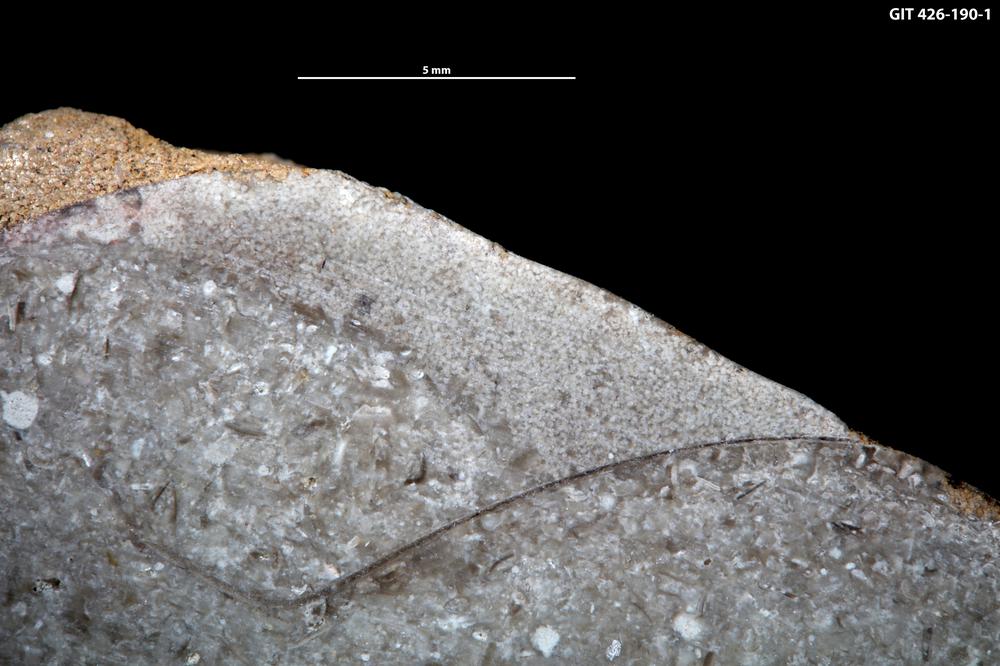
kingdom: Animalia
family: Coprulidae
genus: Coprulus
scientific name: Coprulus
